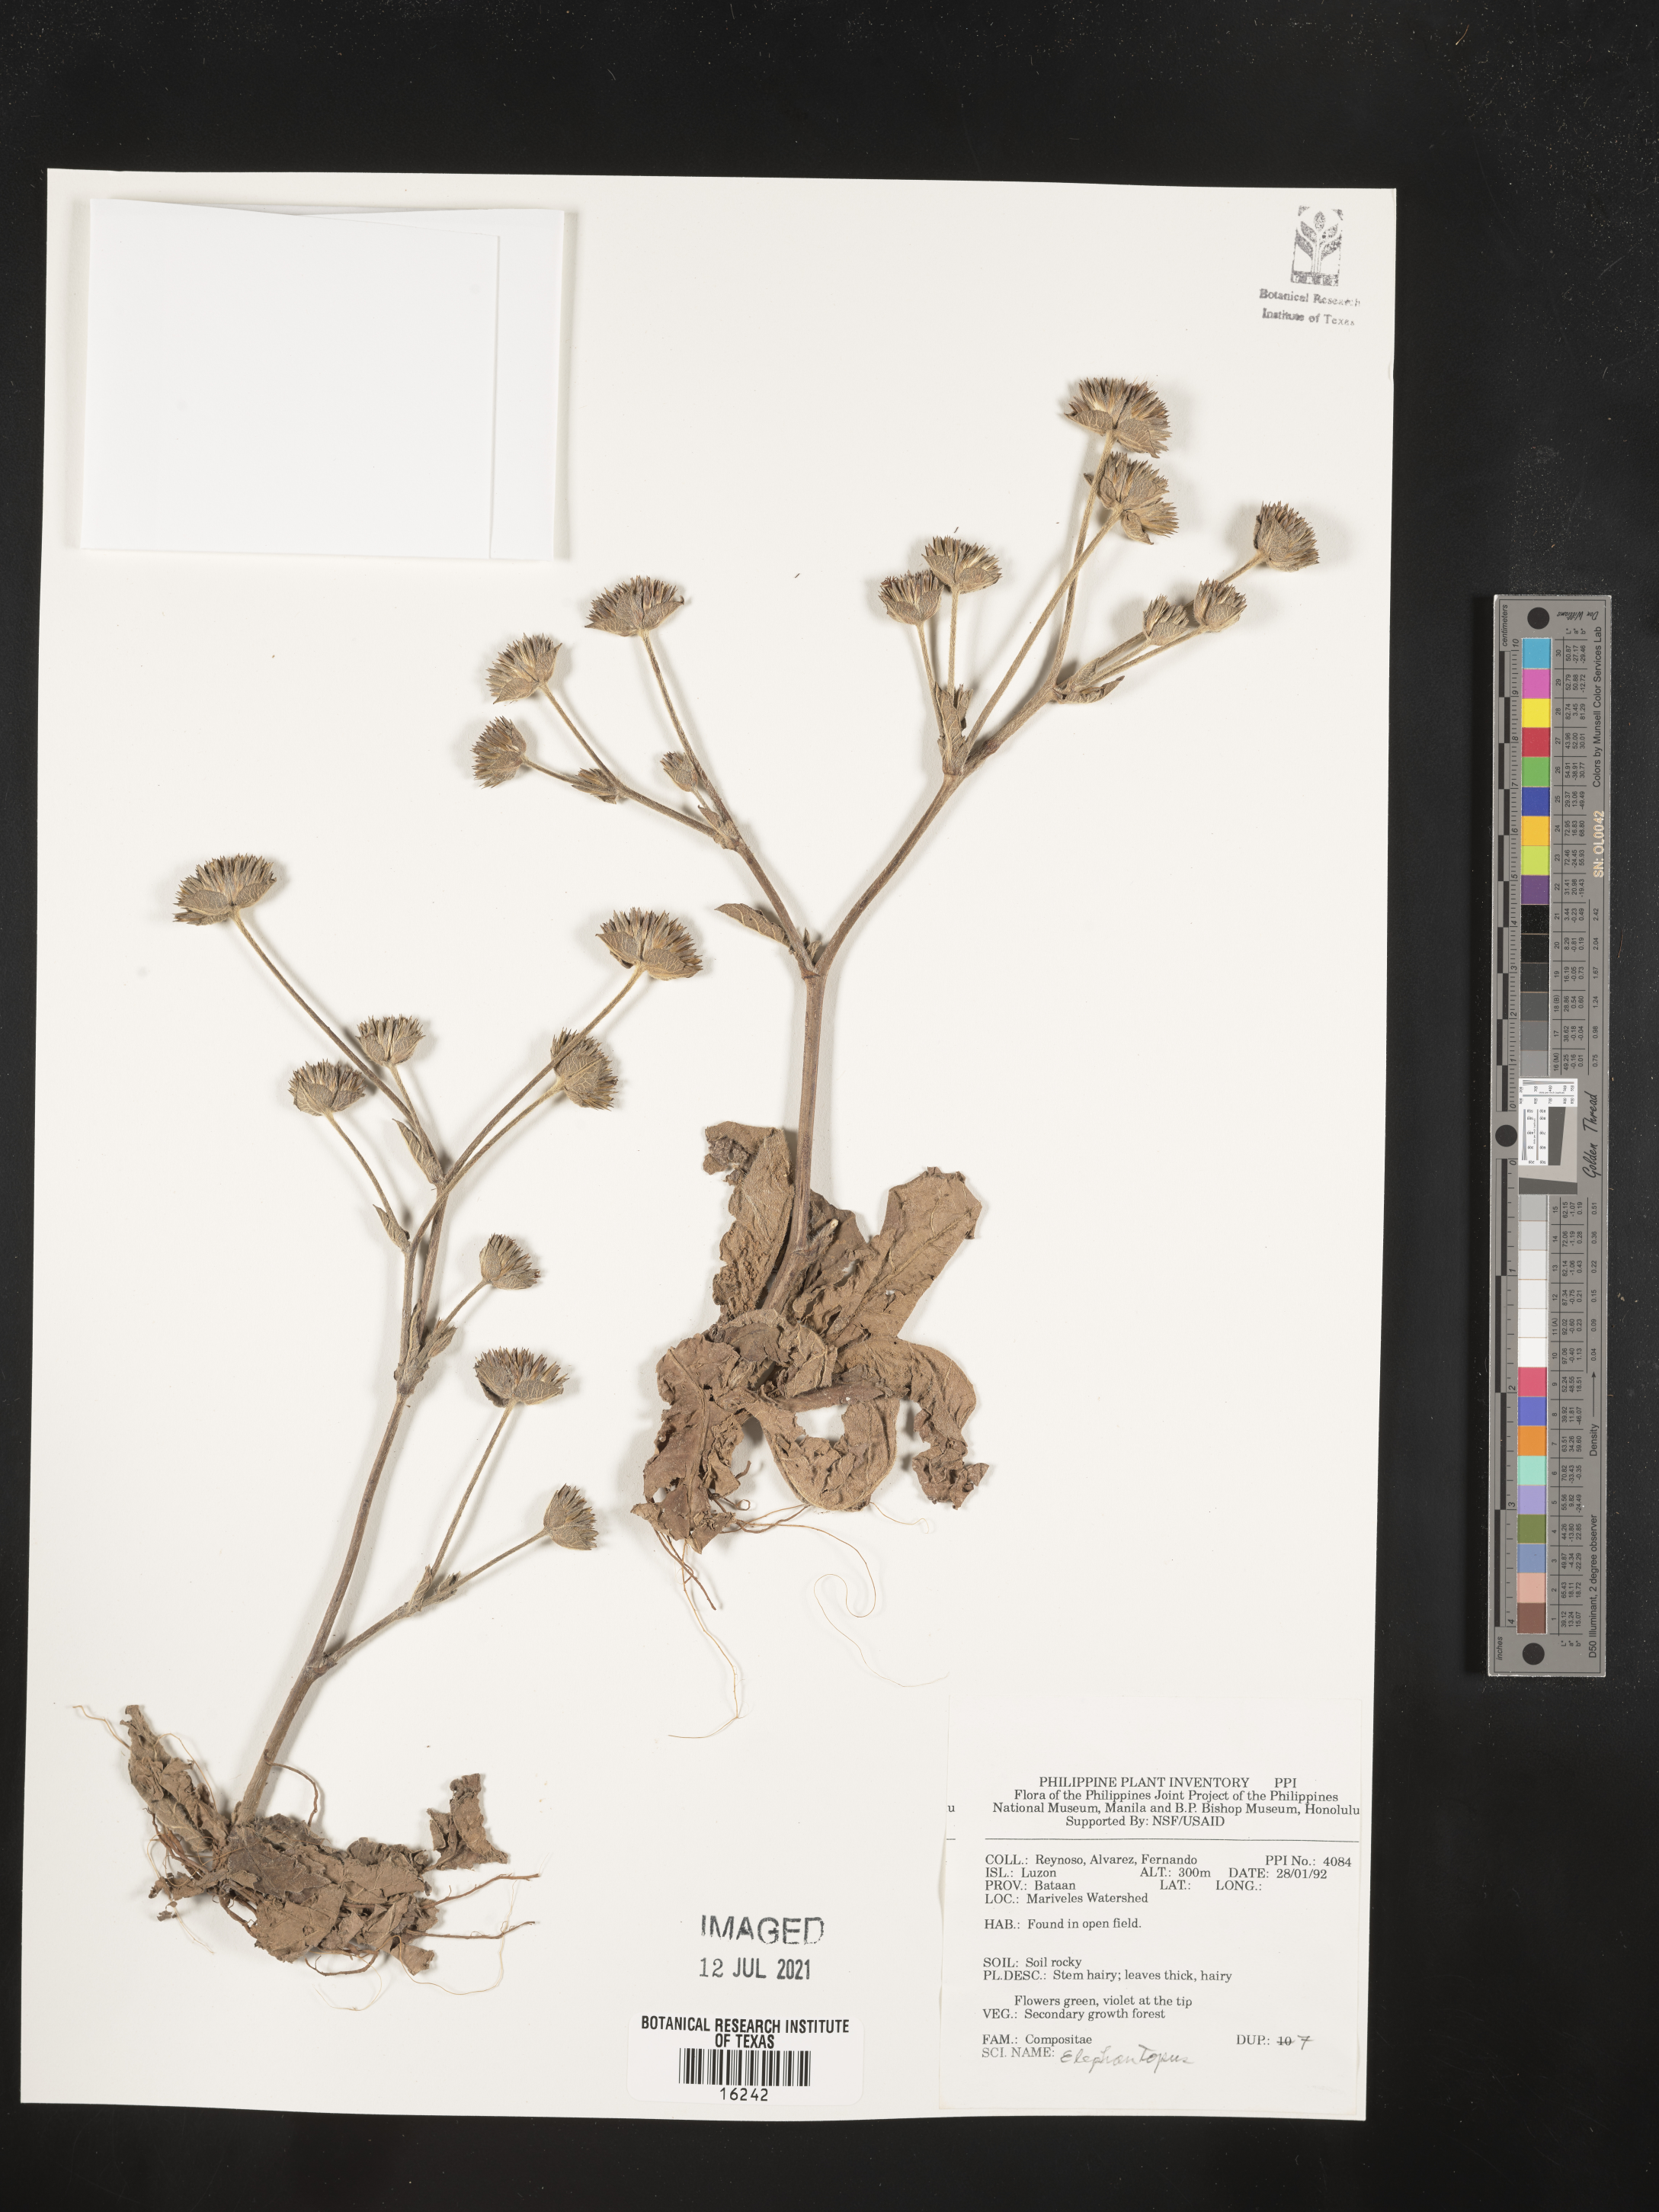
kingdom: Plantae
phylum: Tracheophyta
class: Magnoliopsida
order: Asterales
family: Asteraceae
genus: Elephantopus
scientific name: Elephantopus
